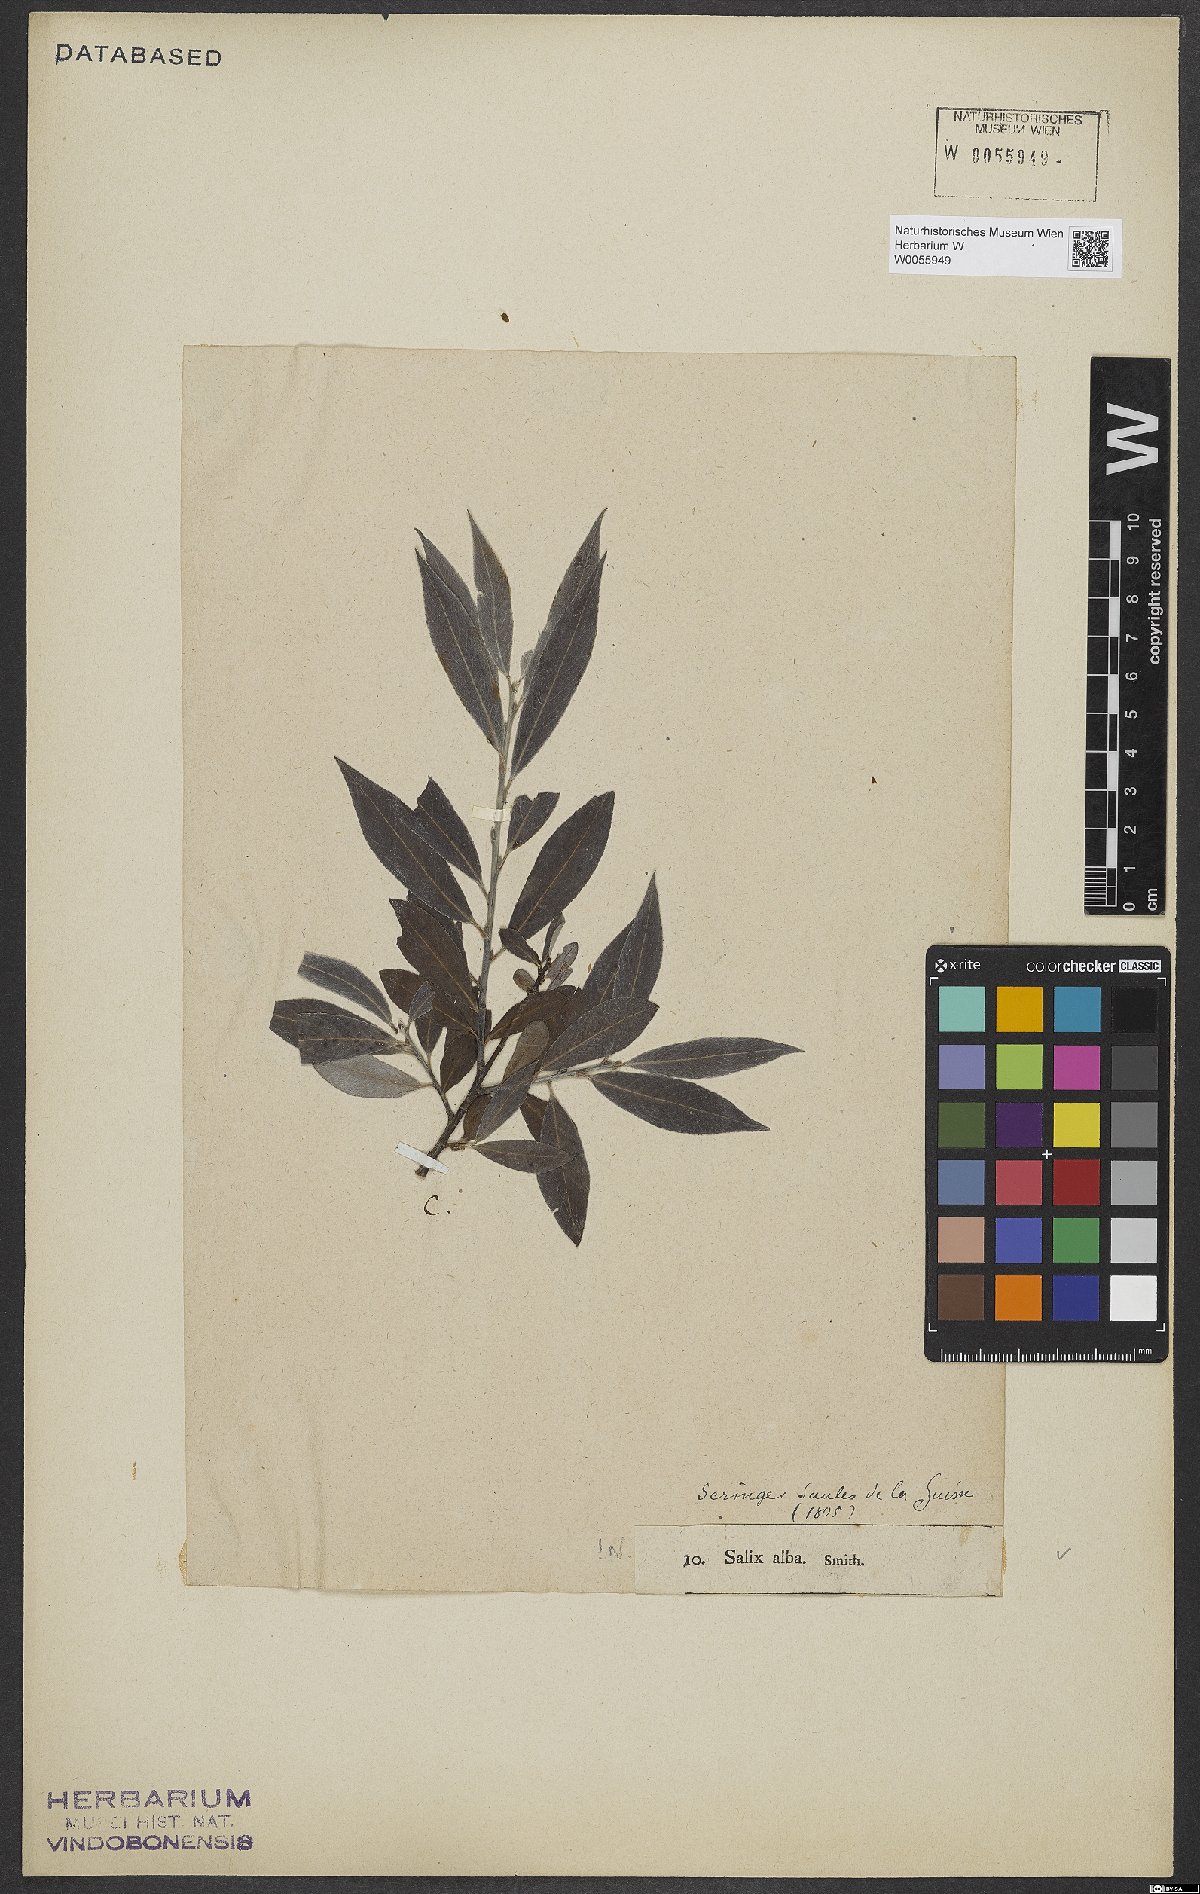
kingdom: Plantae
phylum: Tracheophyta
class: Magnoliopsida
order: Malpighiales
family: Salicaceae
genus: Salix
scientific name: Salix alba
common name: White willow
